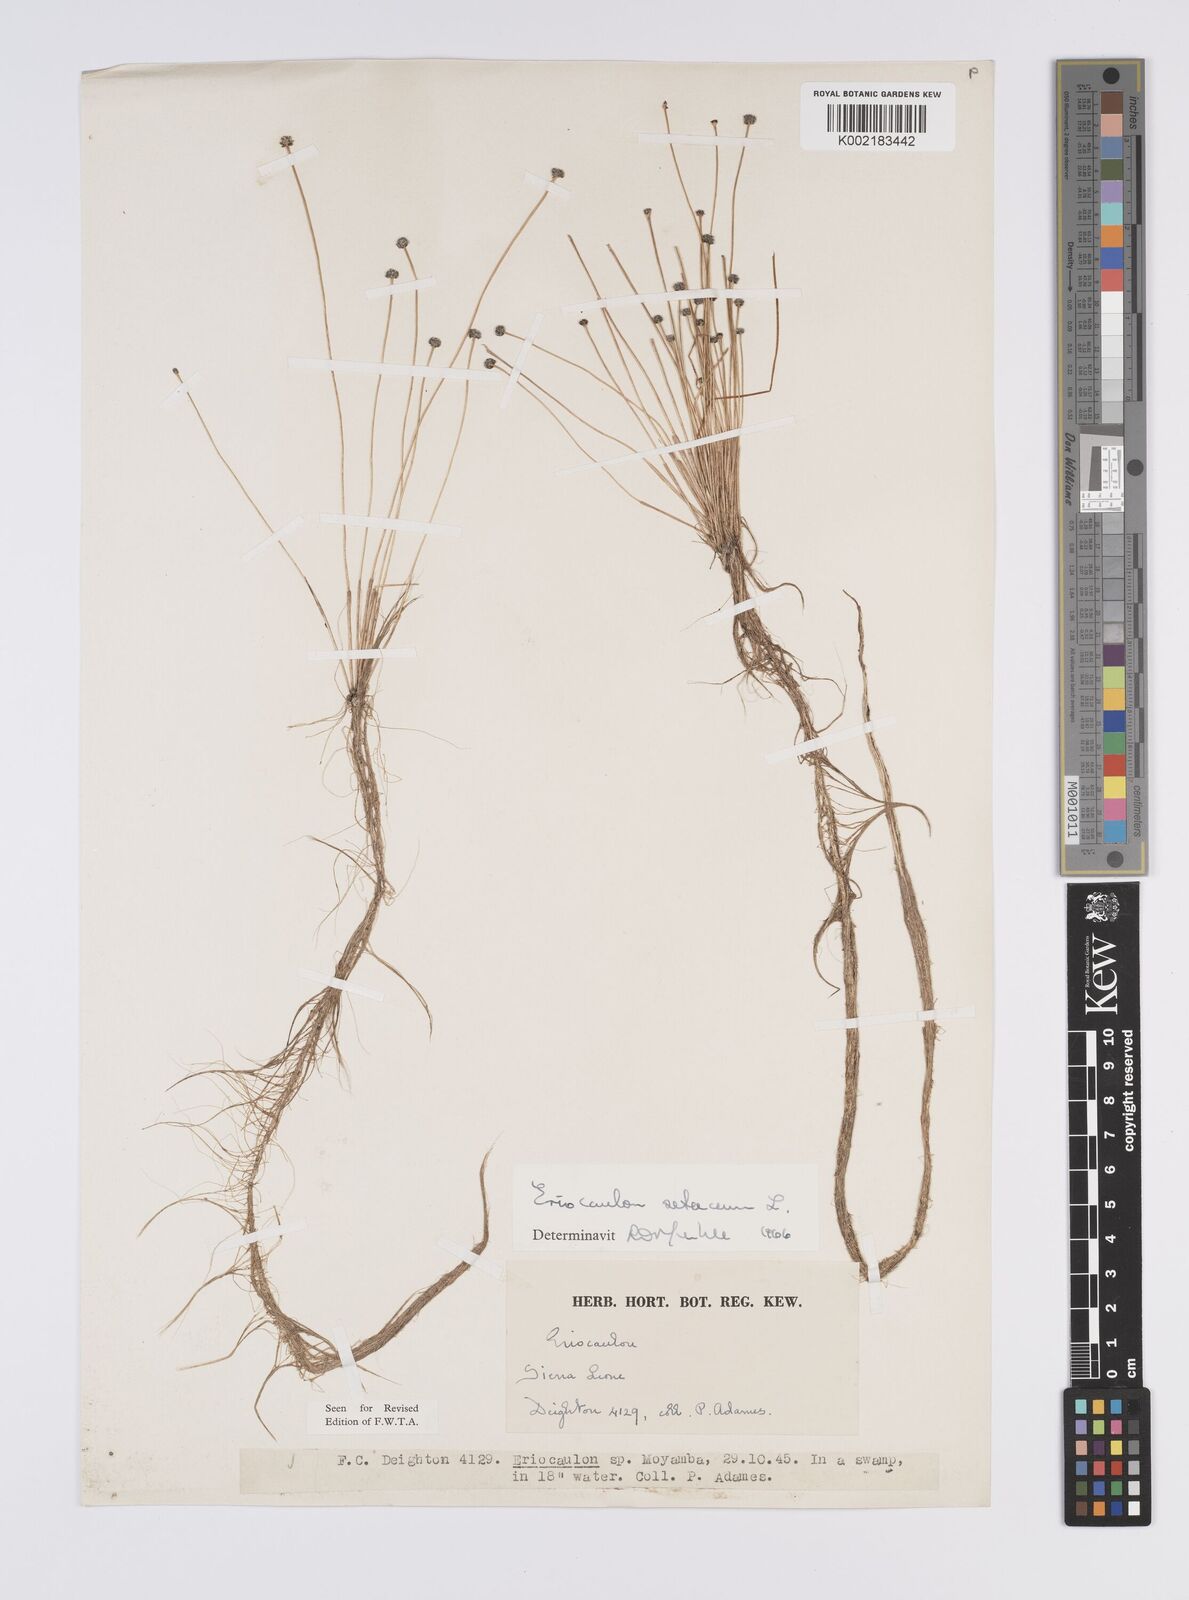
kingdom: Plantae
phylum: Tracheophyta
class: Liliopsida
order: Poales
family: Eriocaulaceae
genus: Eriocaulon
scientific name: Eriocaulon setaceum
